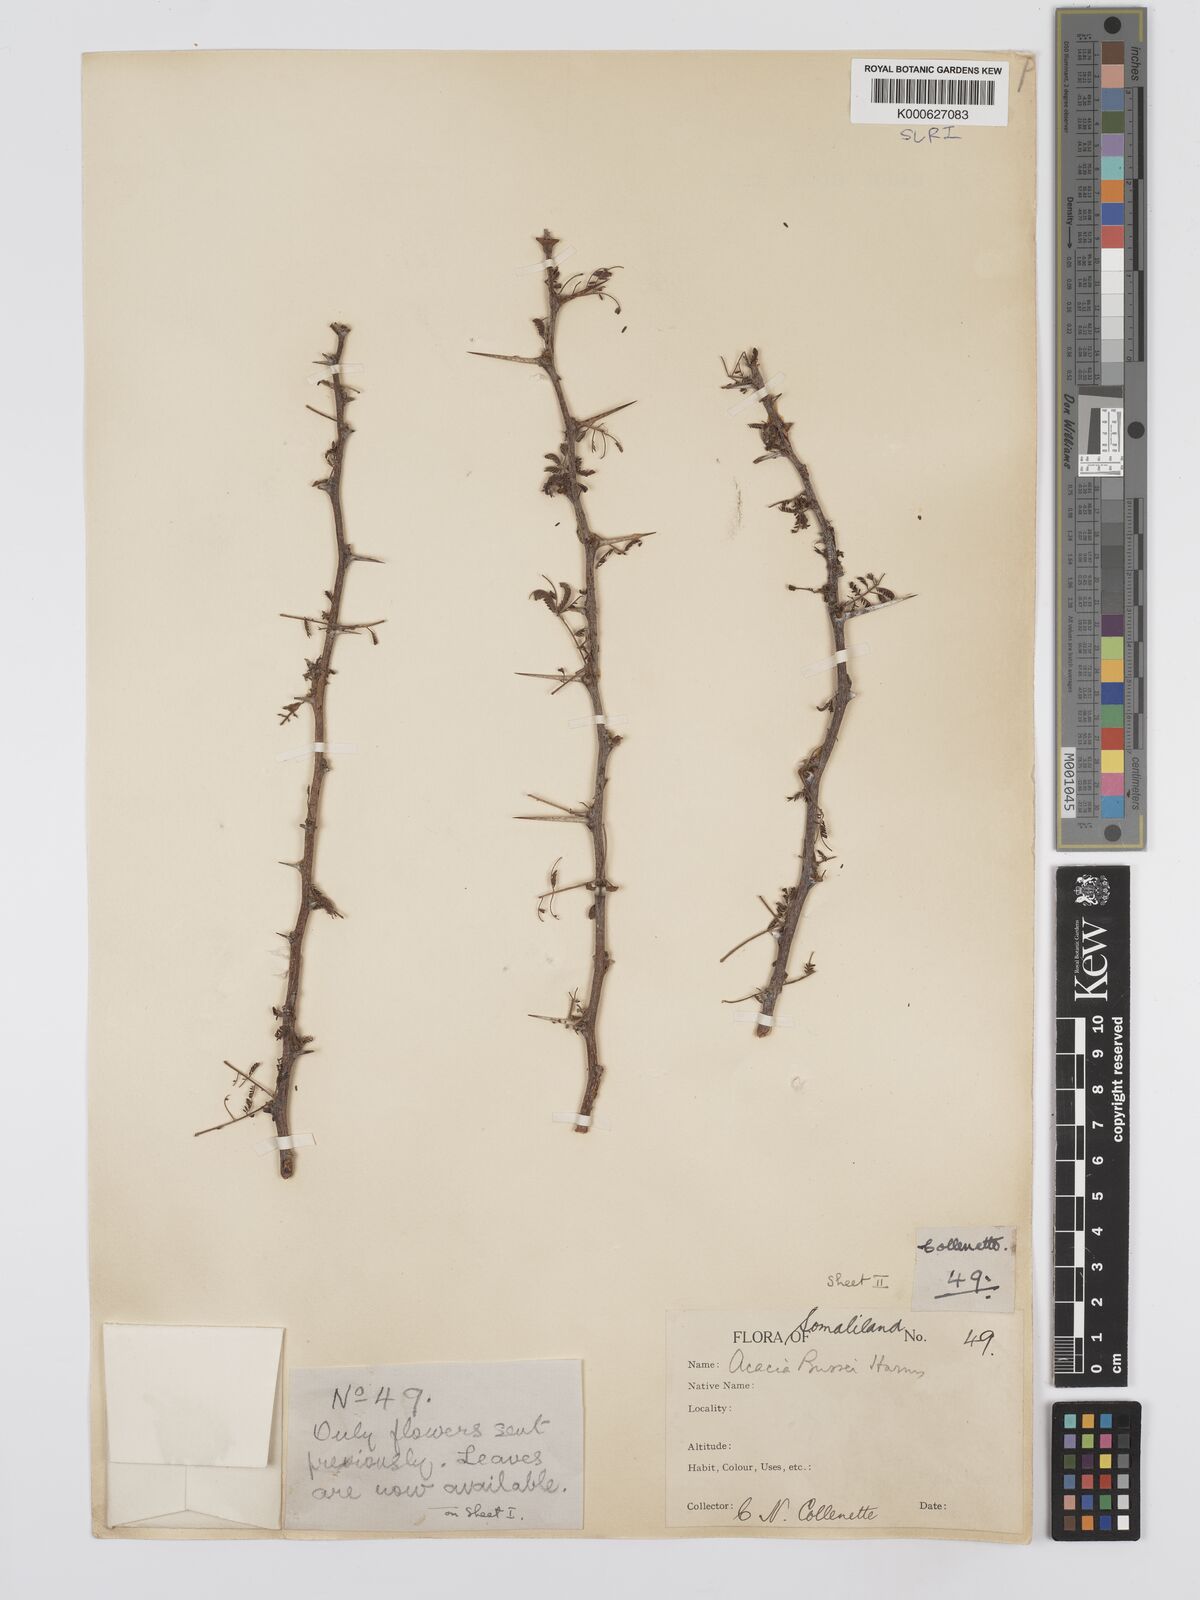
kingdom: Plantae
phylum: Tracheophyta
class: Magnoliopsida
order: Fabales
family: Fabaceae
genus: Vachellia
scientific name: Vachellia bussei
